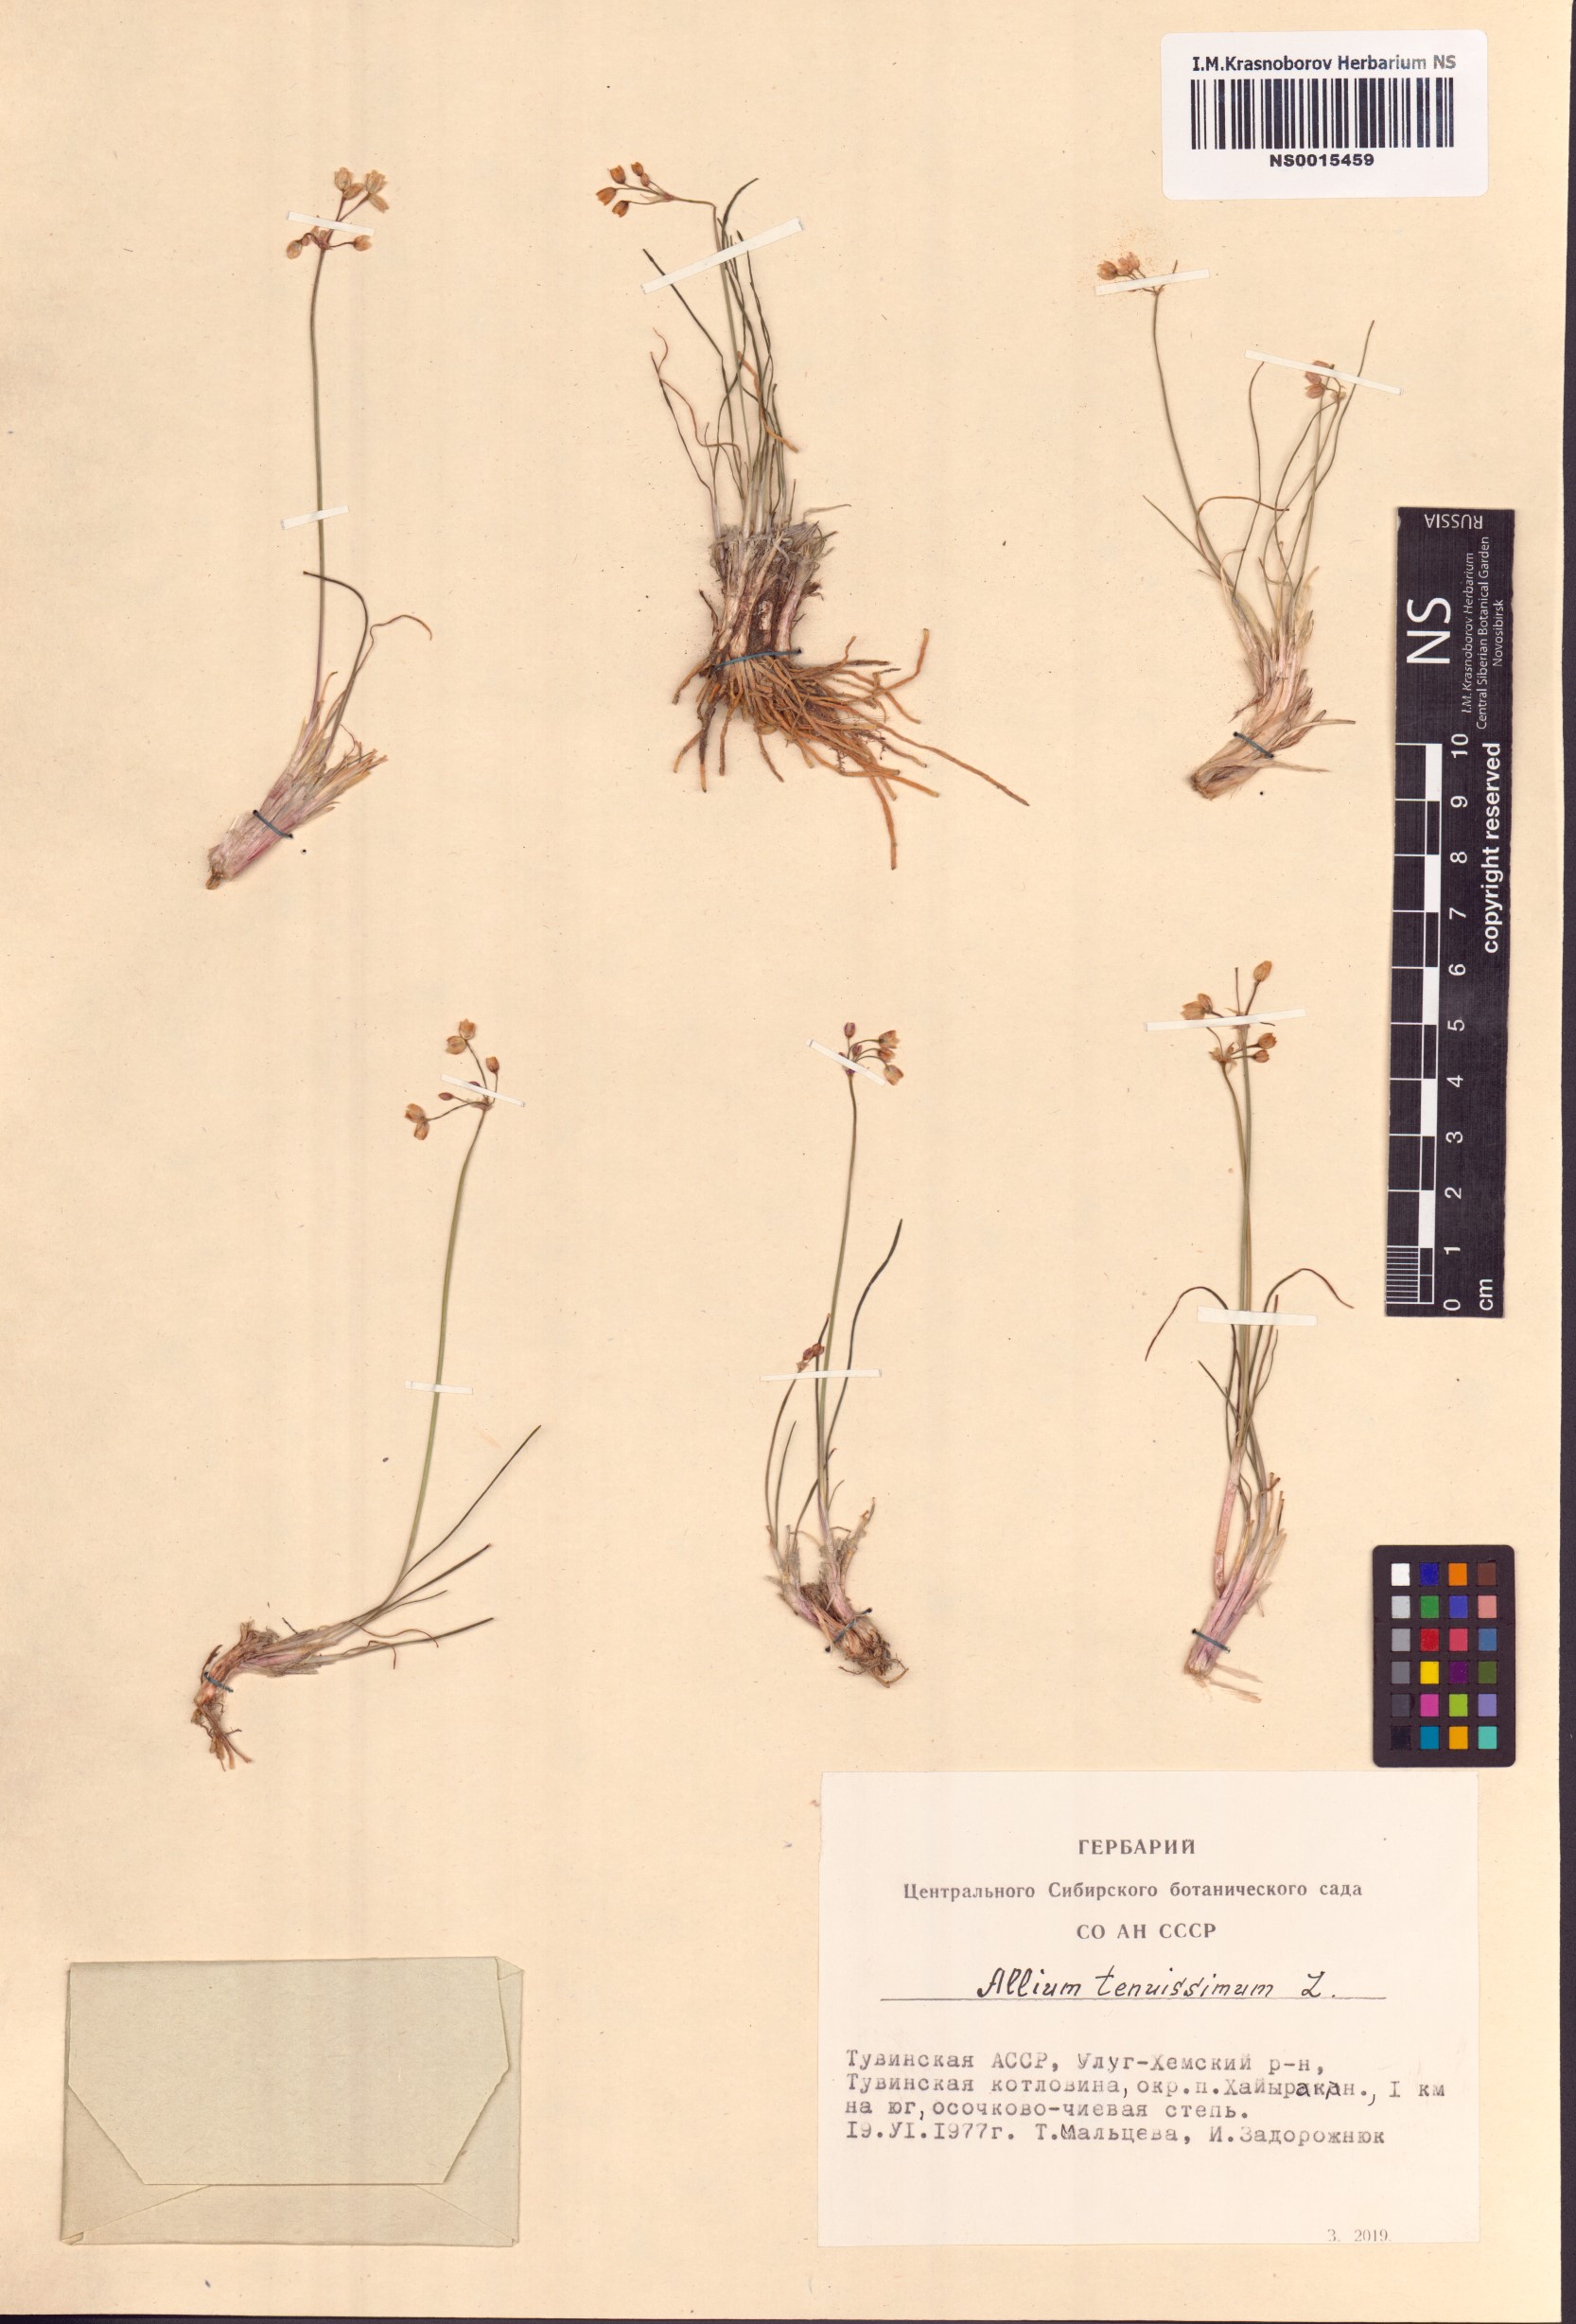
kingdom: Plantae
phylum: Tracheophyta
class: Liliopsida
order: Asparagales
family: Amaryllidaceae
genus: Allium
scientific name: Allium tenuissimum
